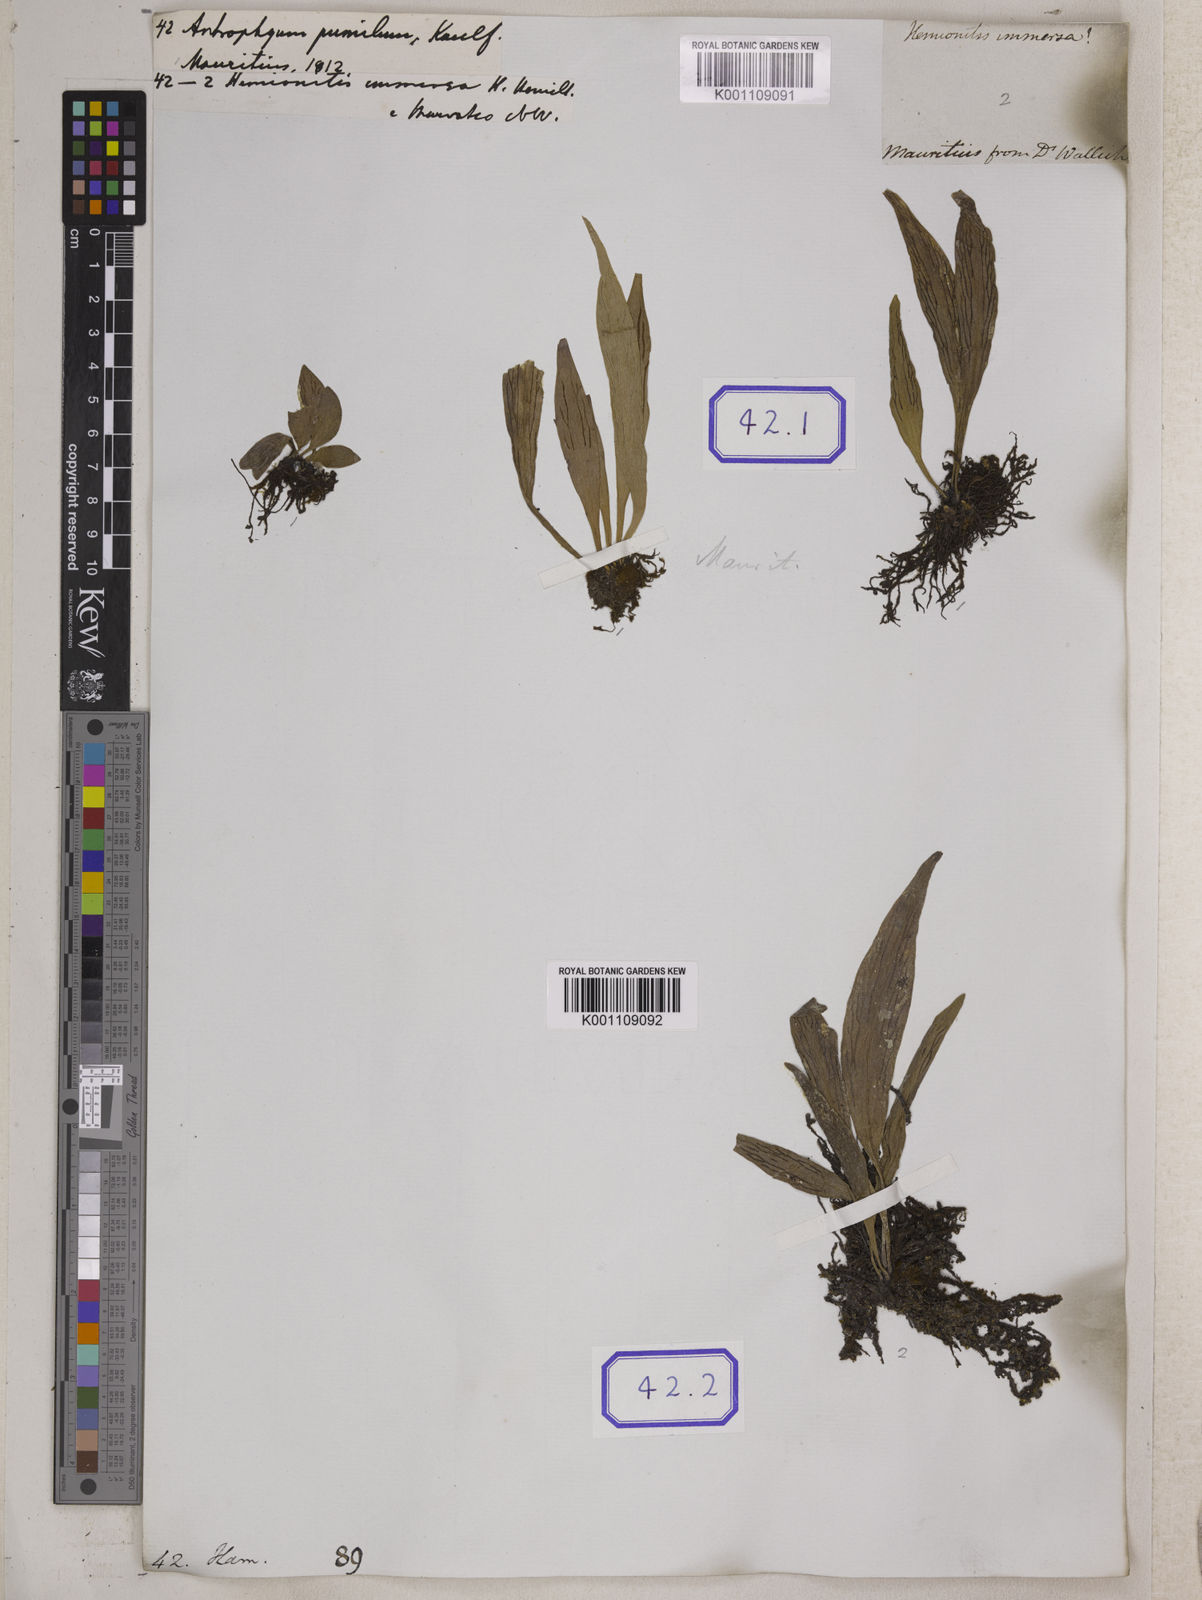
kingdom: Plantae
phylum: Tracheophyta
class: Polypodiopsida
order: Polypodiales
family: Pteridaceae
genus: Antrophyum
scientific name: Antrophyum parvulum
